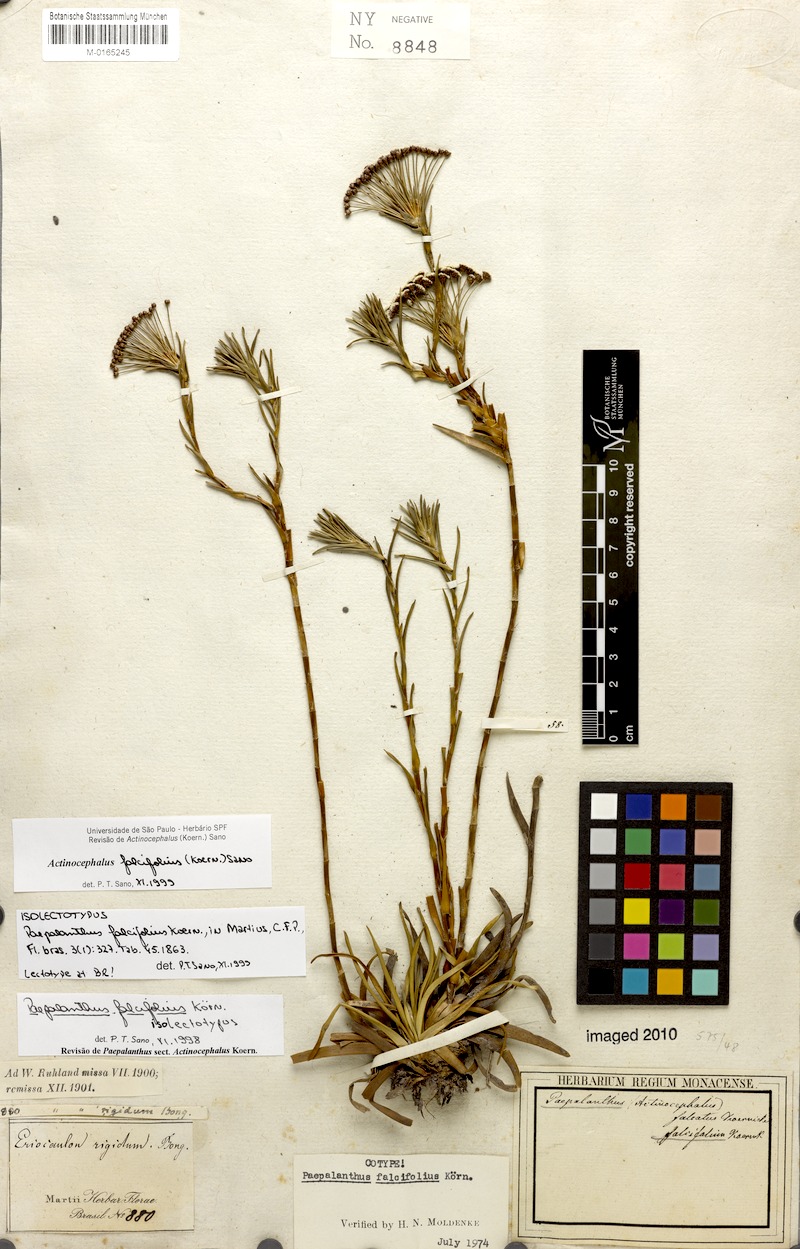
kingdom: Plantae
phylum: Tracheophyta
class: Liliopsida
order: Poales
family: Eriocaulaceae
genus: Paepalanthus
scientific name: Paepalanthus falcifolius
